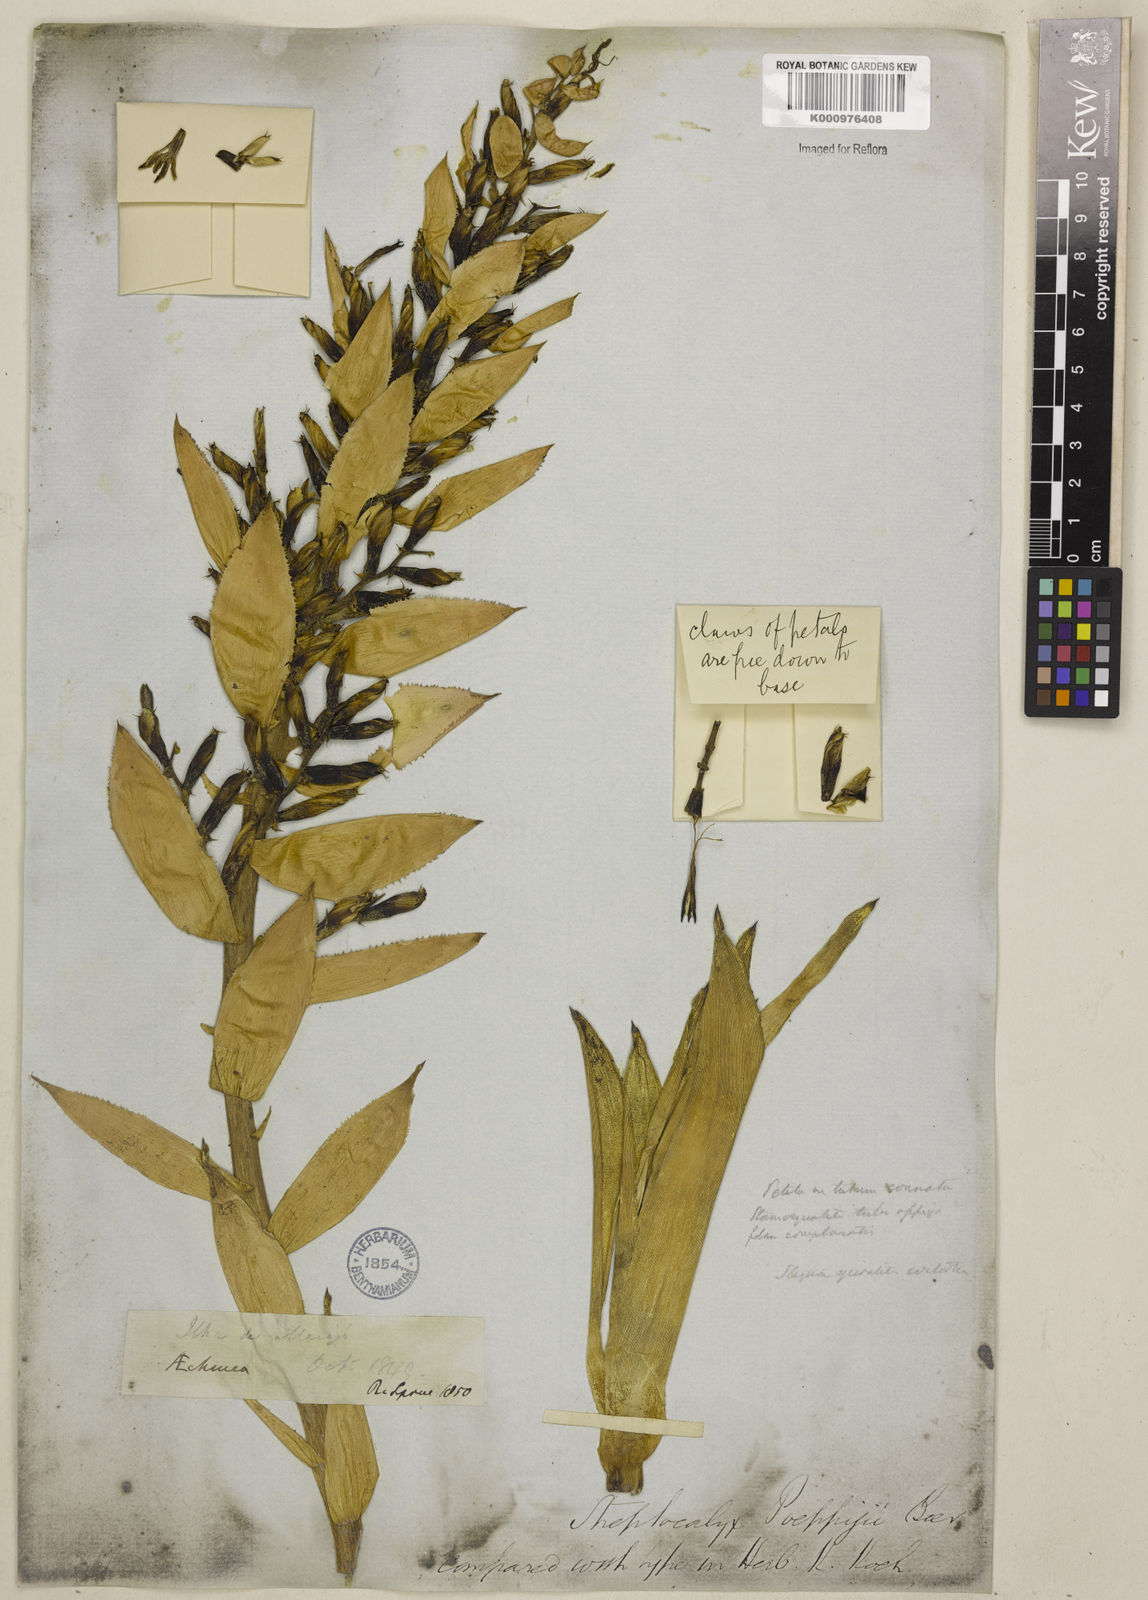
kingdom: Plantae
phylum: Tracheophyta
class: Liliopsida
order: Poales
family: Bromeliaceae
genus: Aechmea
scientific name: Aechmea vallerandii
